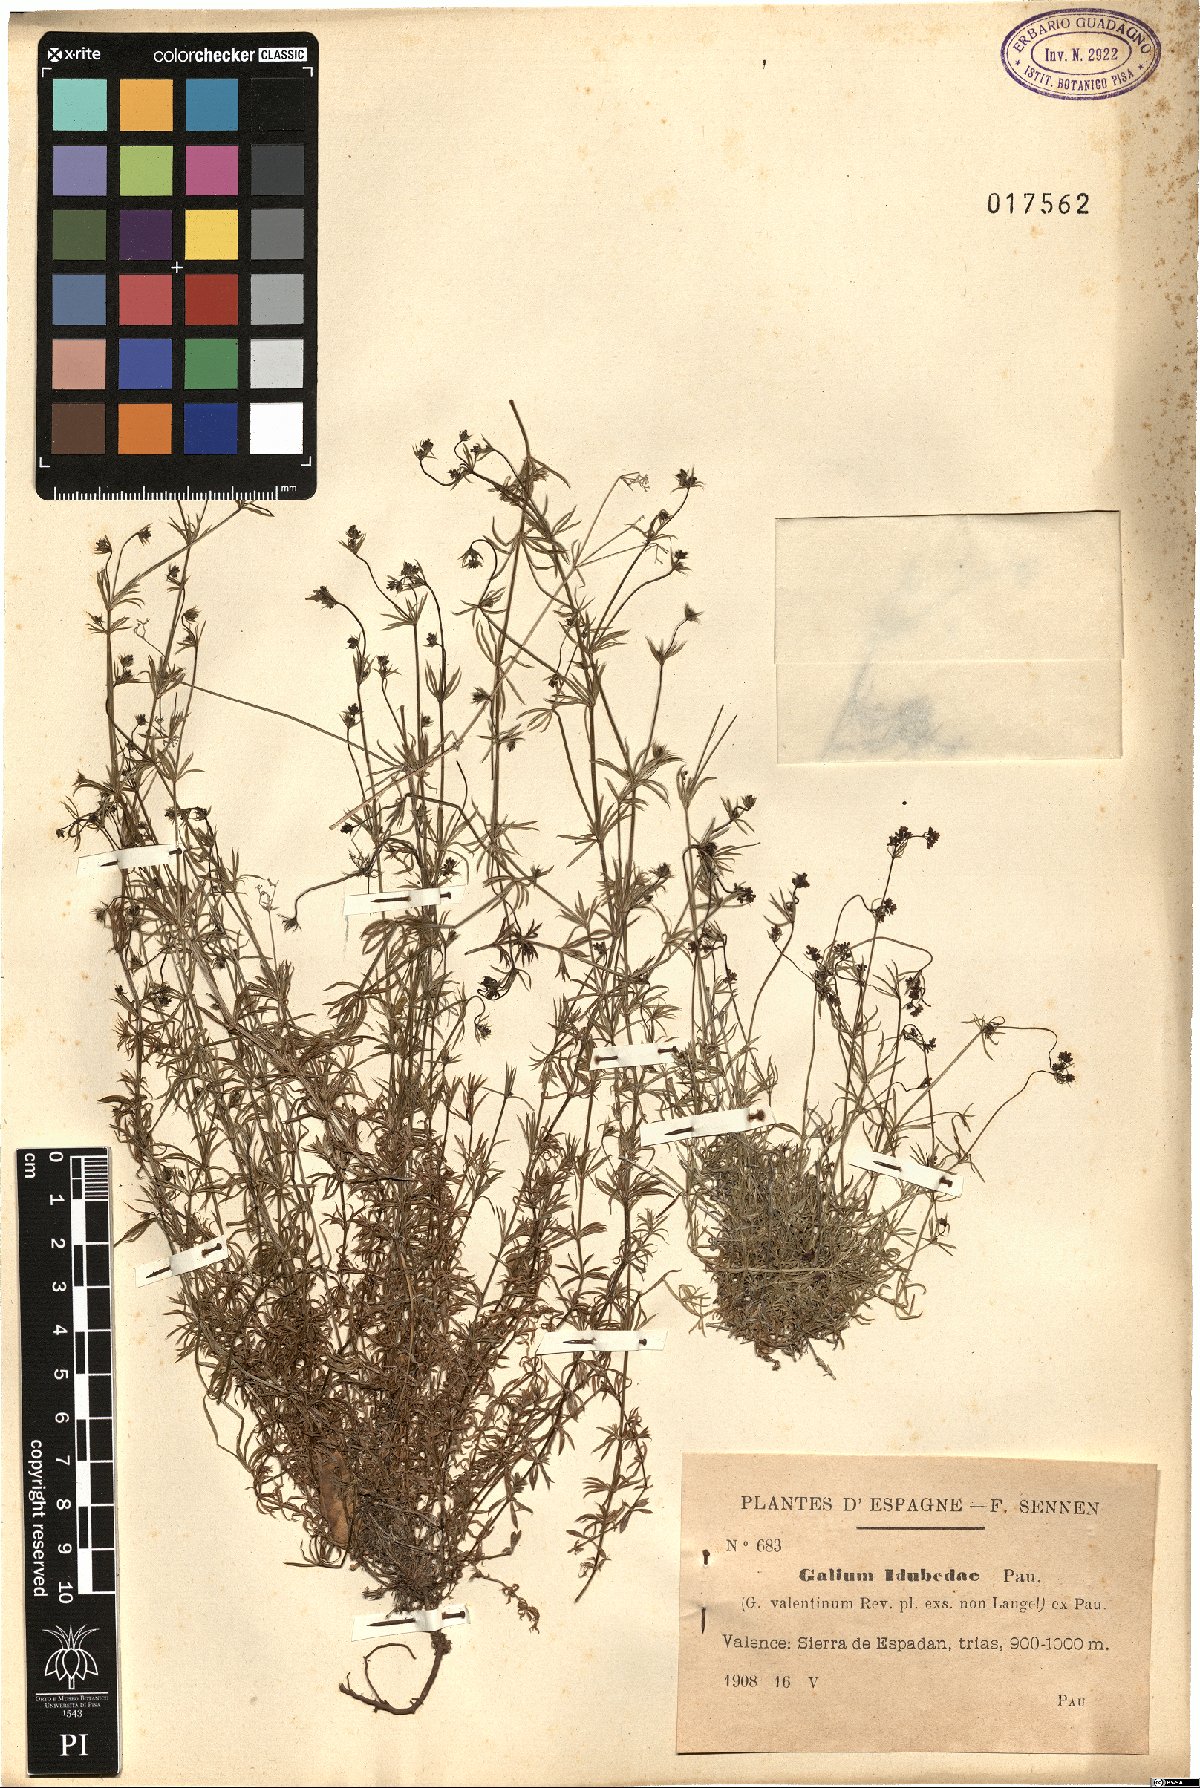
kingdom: Plantae
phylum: Tracheophyta
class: Magnoliopsida
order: Gentianales
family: Rubiaceae
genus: Galium
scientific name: Galium idubedae
